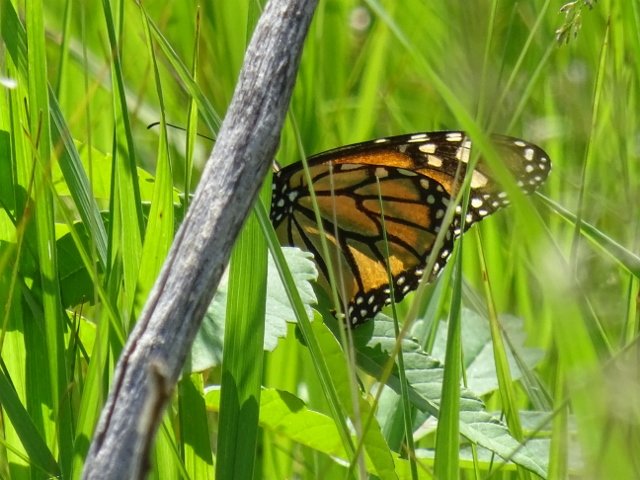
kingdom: Animalia
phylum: Arthropoda
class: Insecta
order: Lepidoptera
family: Nymphalidae
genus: Danaus
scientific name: Danaus plexippus
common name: Monarch
